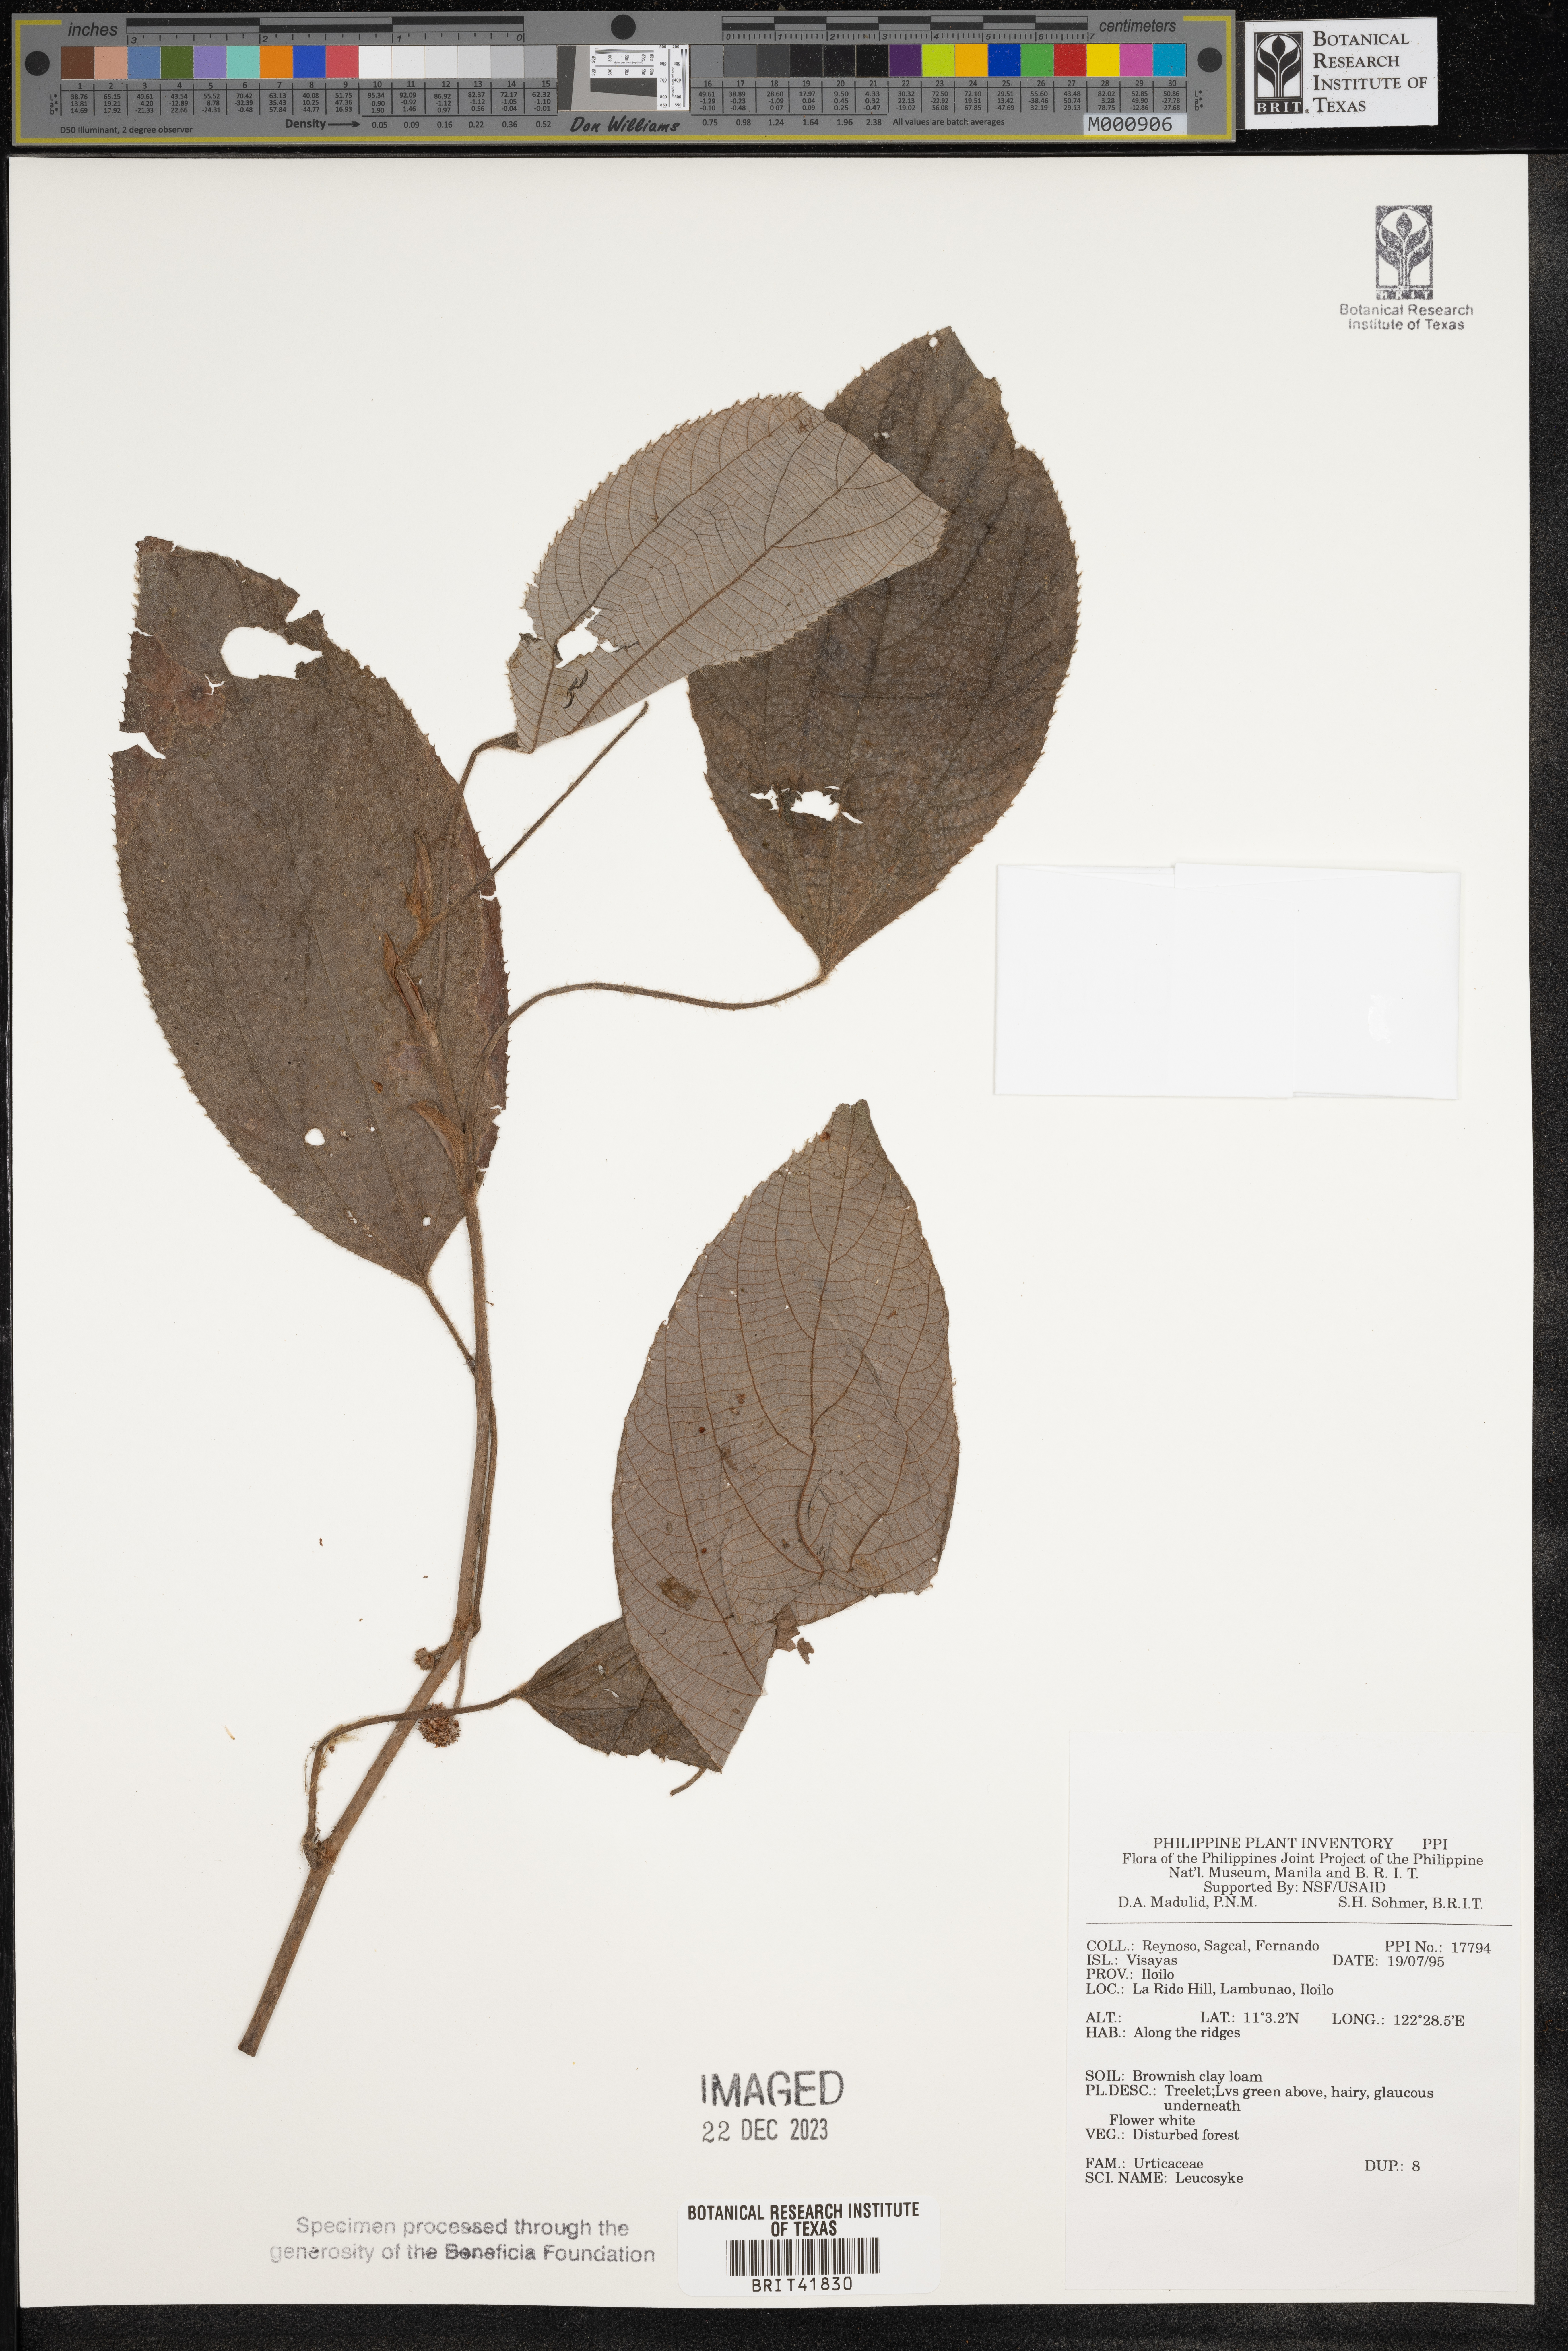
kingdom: Plantae
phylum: Tracheophyta
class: Magnoliopsida
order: Rosales
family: Urticaceae
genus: Leucosyke
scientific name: Leucosyke
